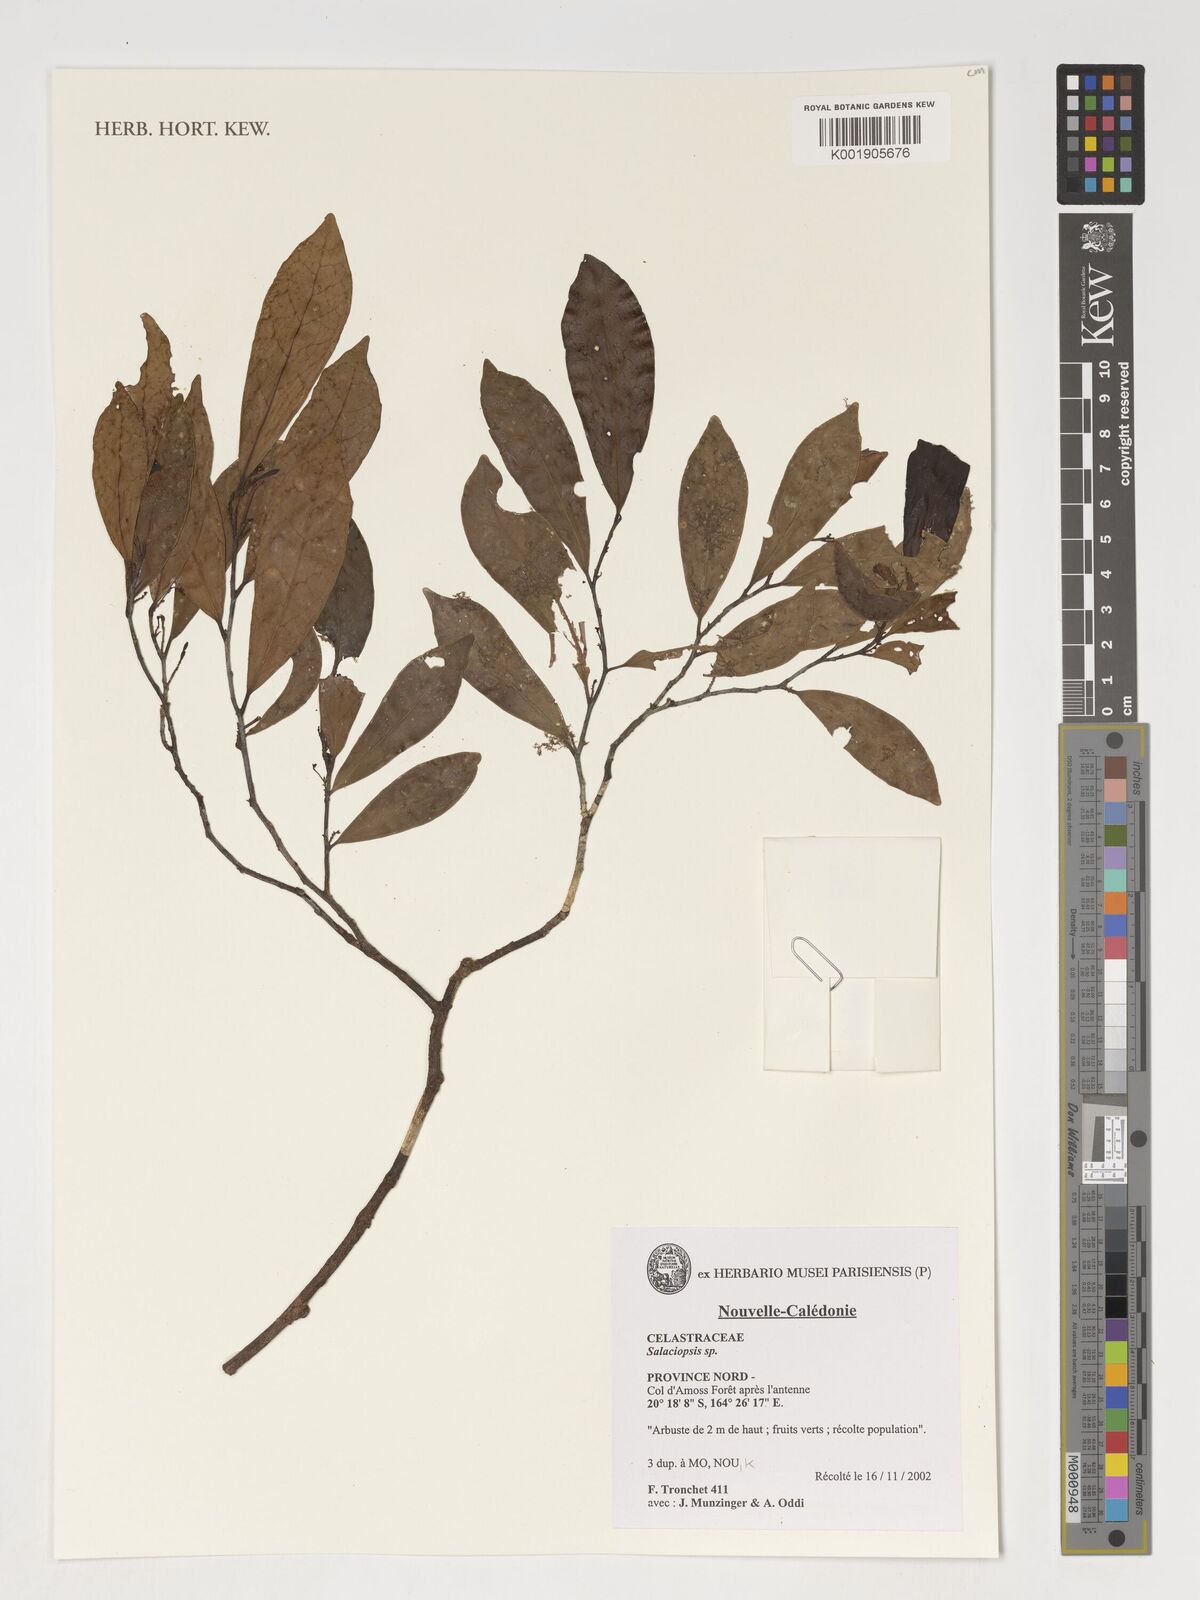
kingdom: Plantae
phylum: Tracheophyta
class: Magnoliopsida
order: Celastrales
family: Celastraceae
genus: Salaciopsis
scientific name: Salaciopsis
